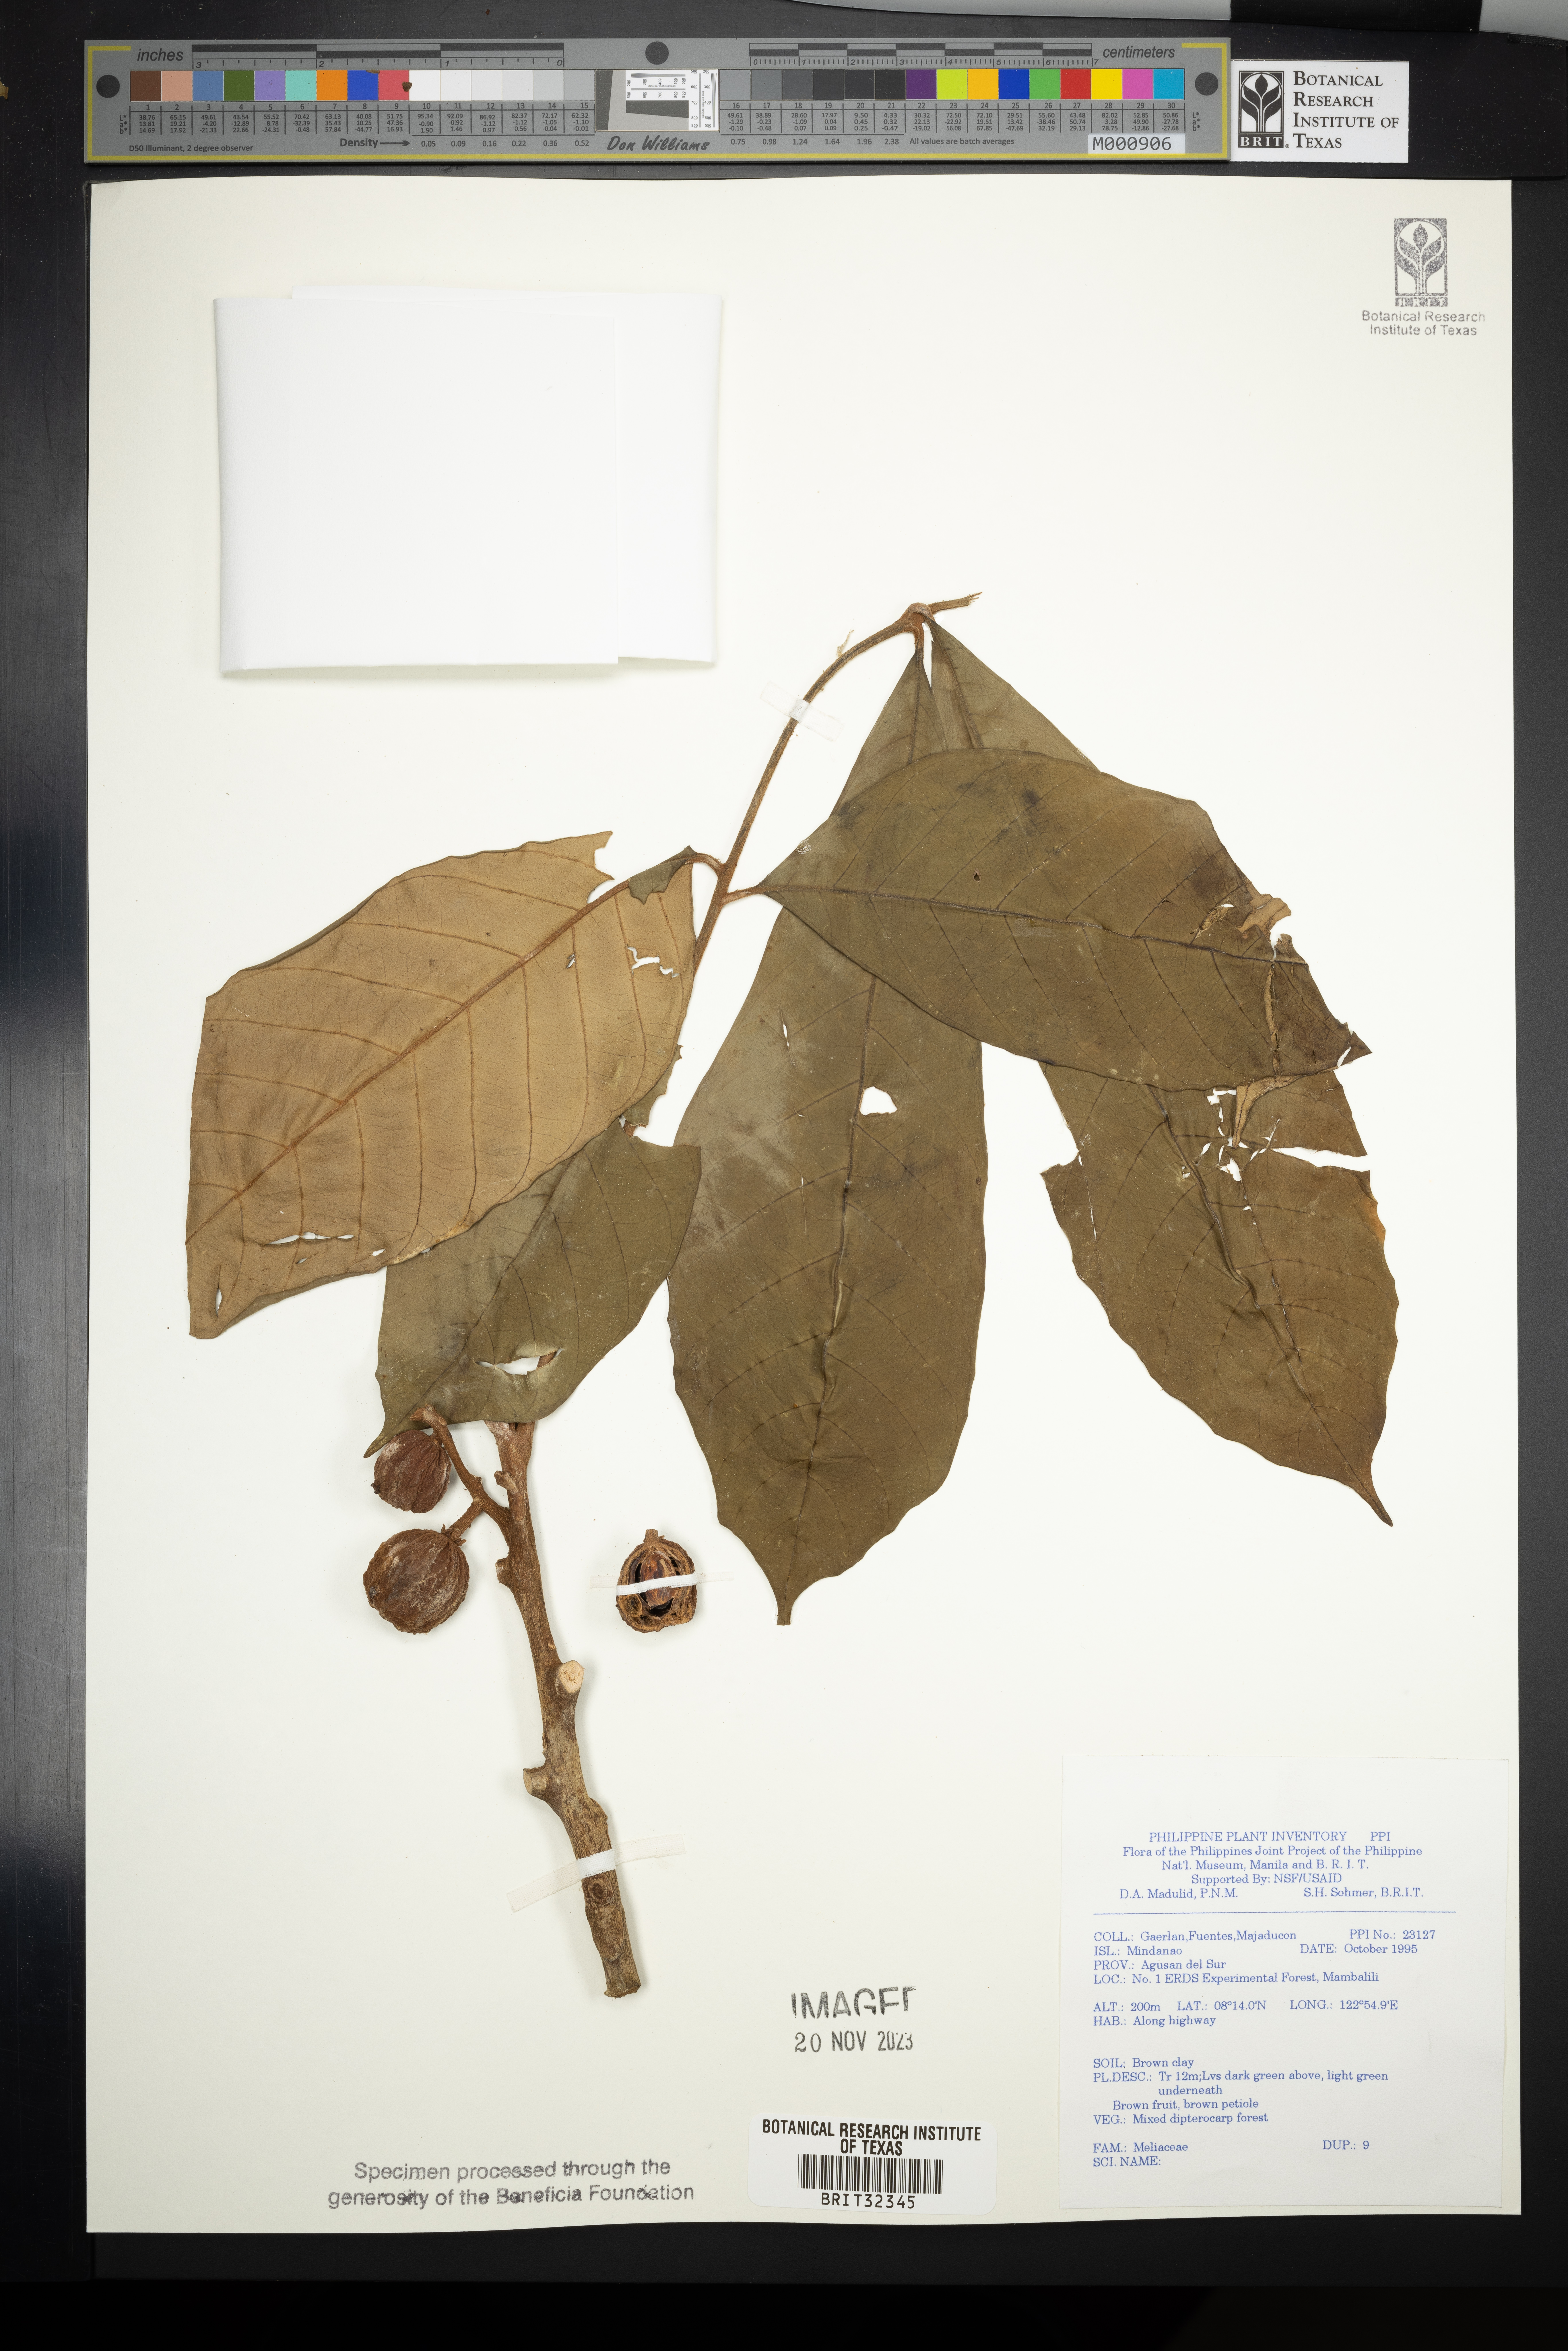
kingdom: Plantae
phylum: Tracheophyta
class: Magnoliopsida
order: Sapindales
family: Meliaceae
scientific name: Meliaceae
